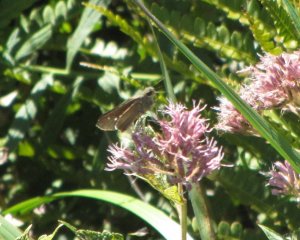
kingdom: Animalia
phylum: Arthropoda
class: Insecta
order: Lepidoptera
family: Hesperiidae
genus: Panoquina
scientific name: Panoquina ocola
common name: Ocola Skipper
